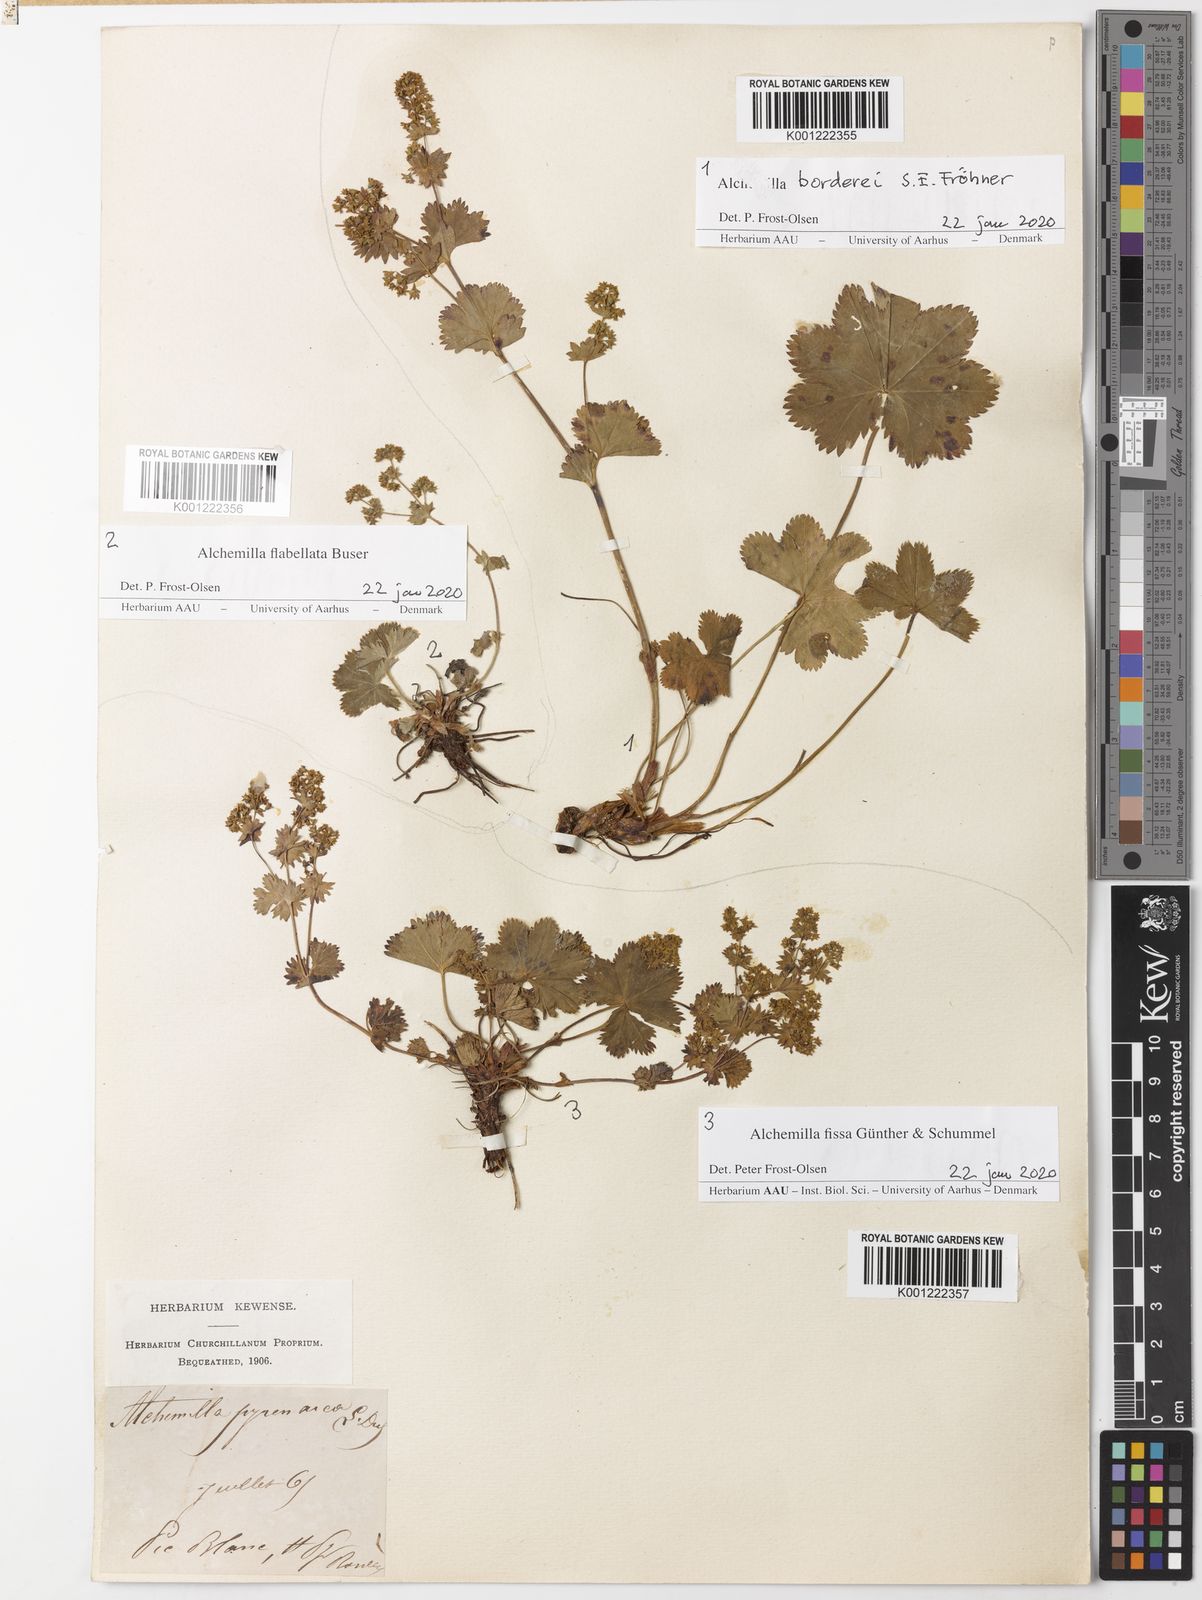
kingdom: Plantae
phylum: Tracheophyta
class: Magnoliopsida
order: Rosales
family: Rosaceae
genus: Alchemilla
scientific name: Alchemilla fissa
